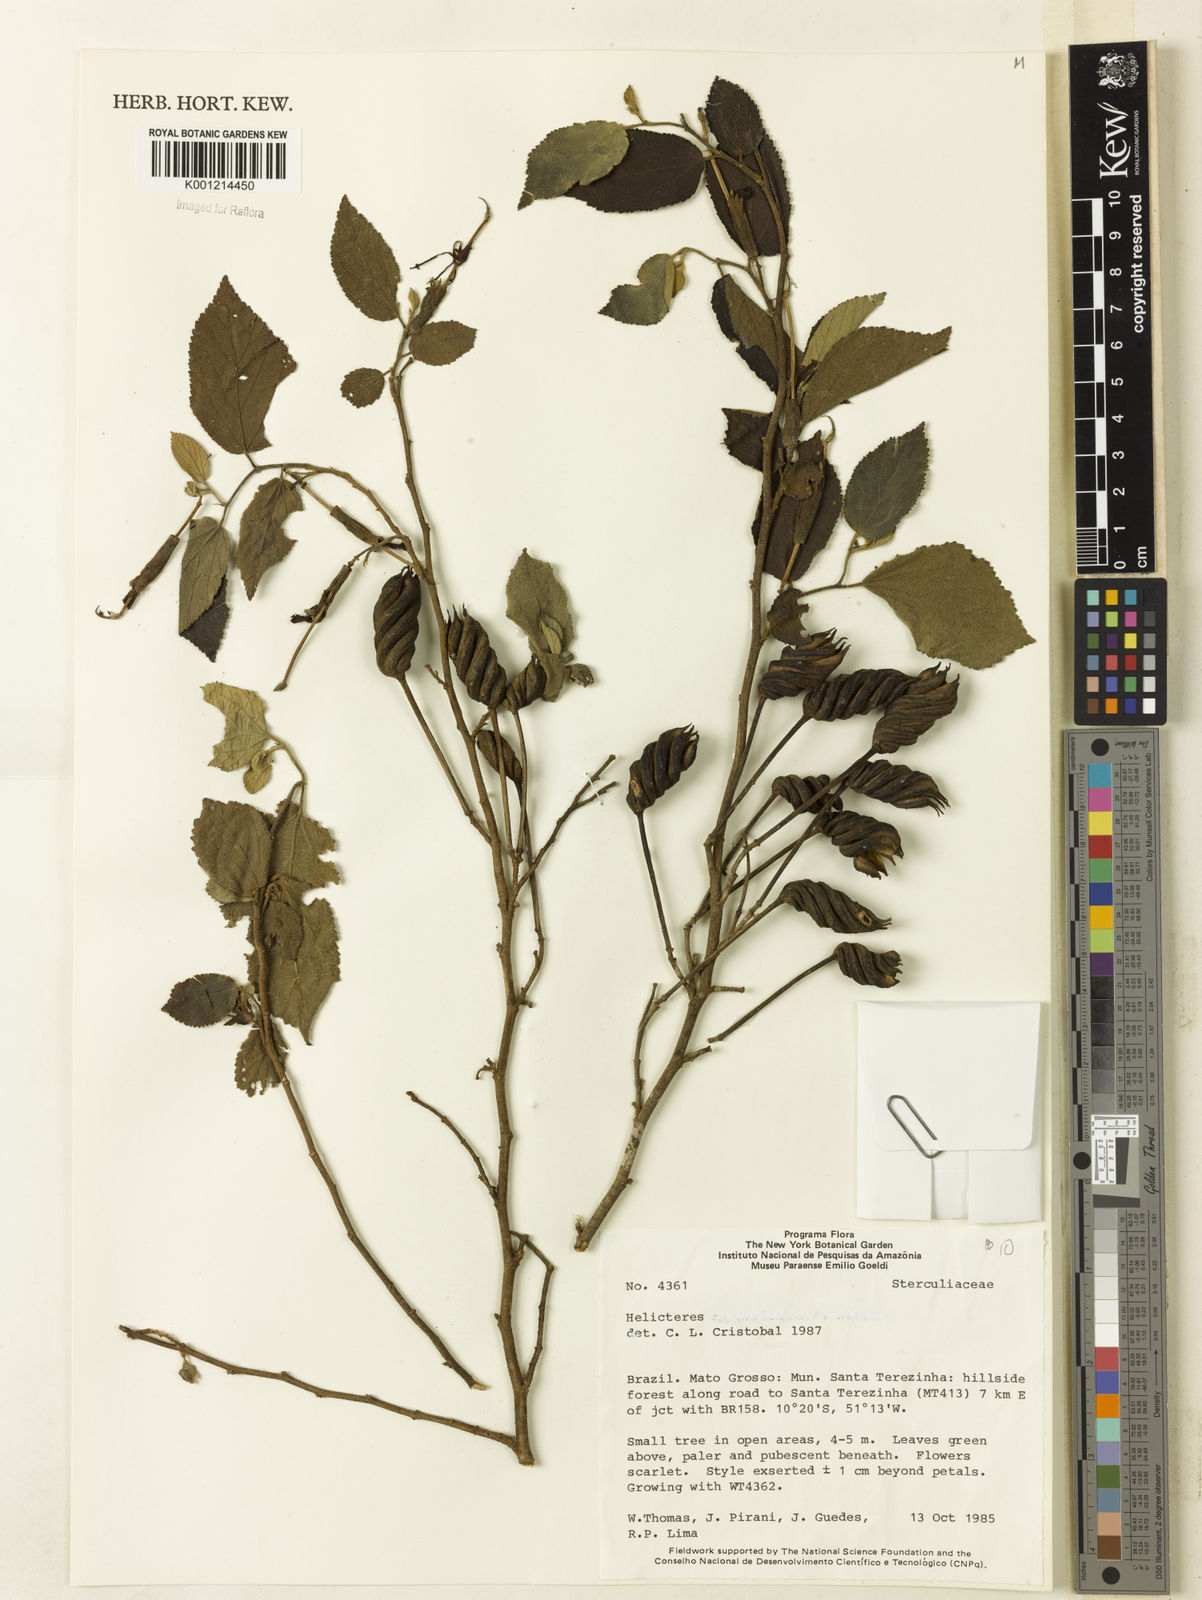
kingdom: Plantae
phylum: Tracheophyta
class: Magnoliopsida
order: Malvales
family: Malvaceae
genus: Helicteres
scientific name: Helicteres heptandra
